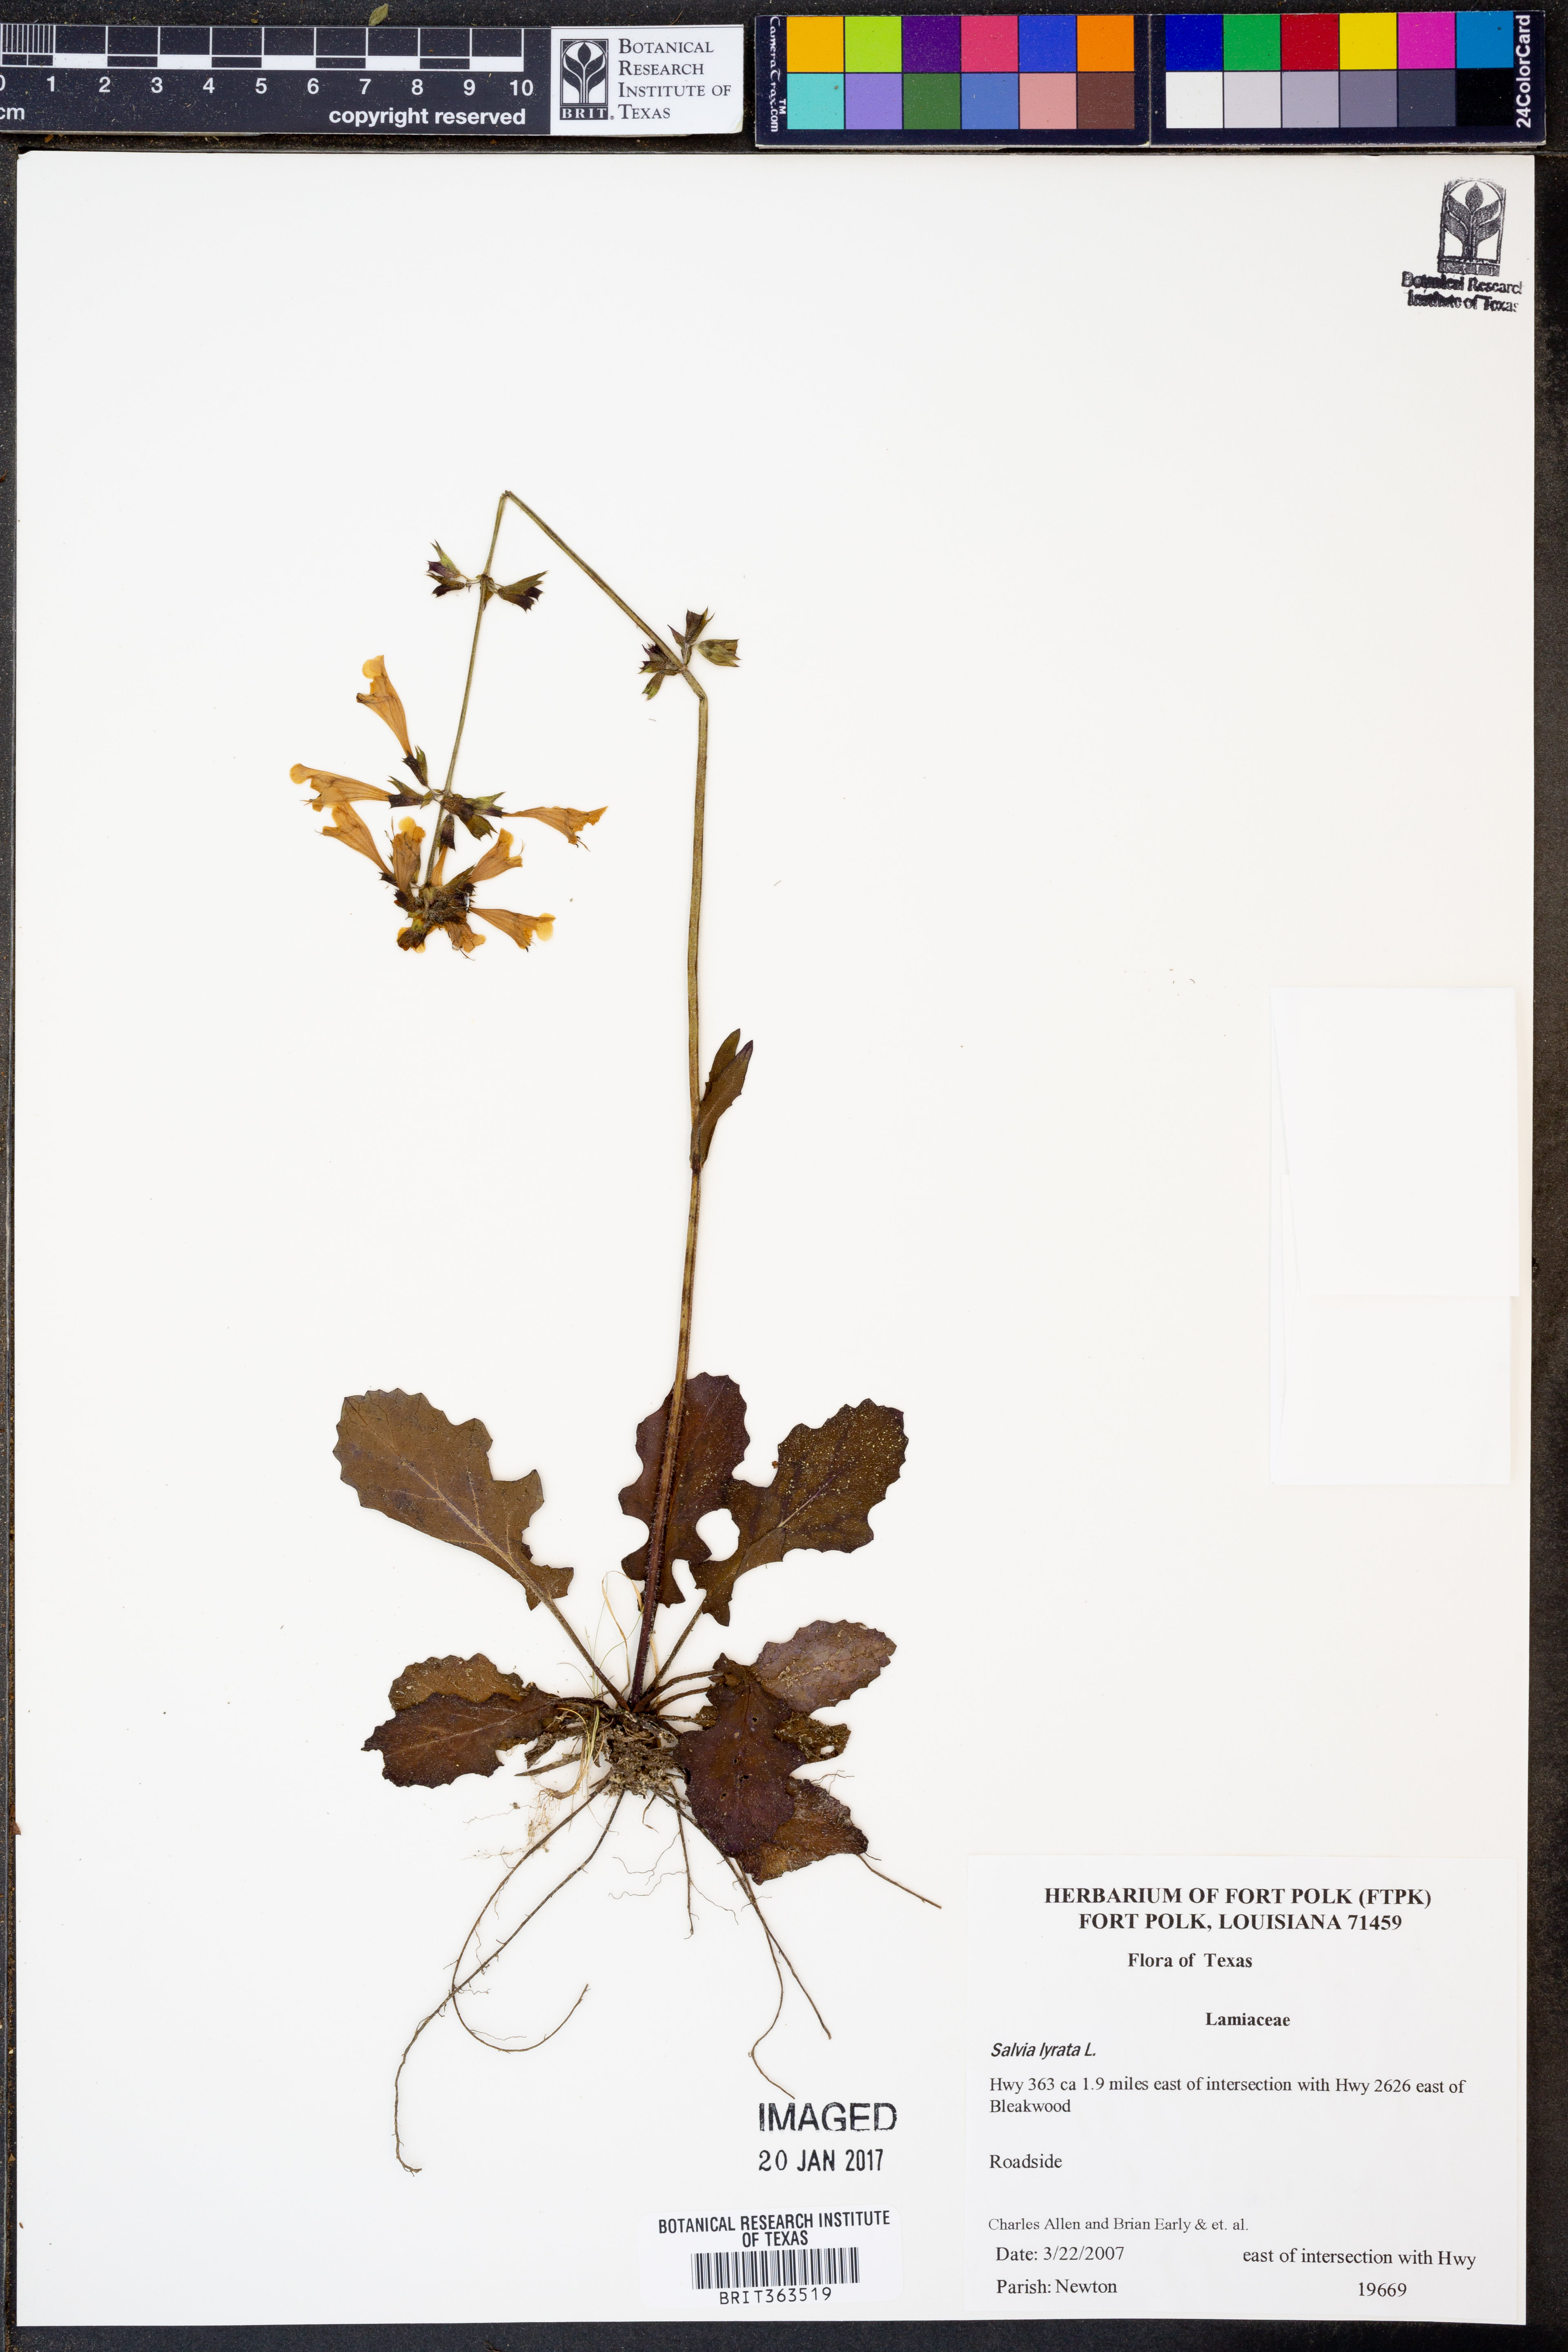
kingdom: Plantae
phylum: Tracheophyta
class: Magnoliopsida
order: Lamiales
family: Lamiaceae
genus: Salvia
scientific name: Salvia lyrata
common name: Cancerweed
